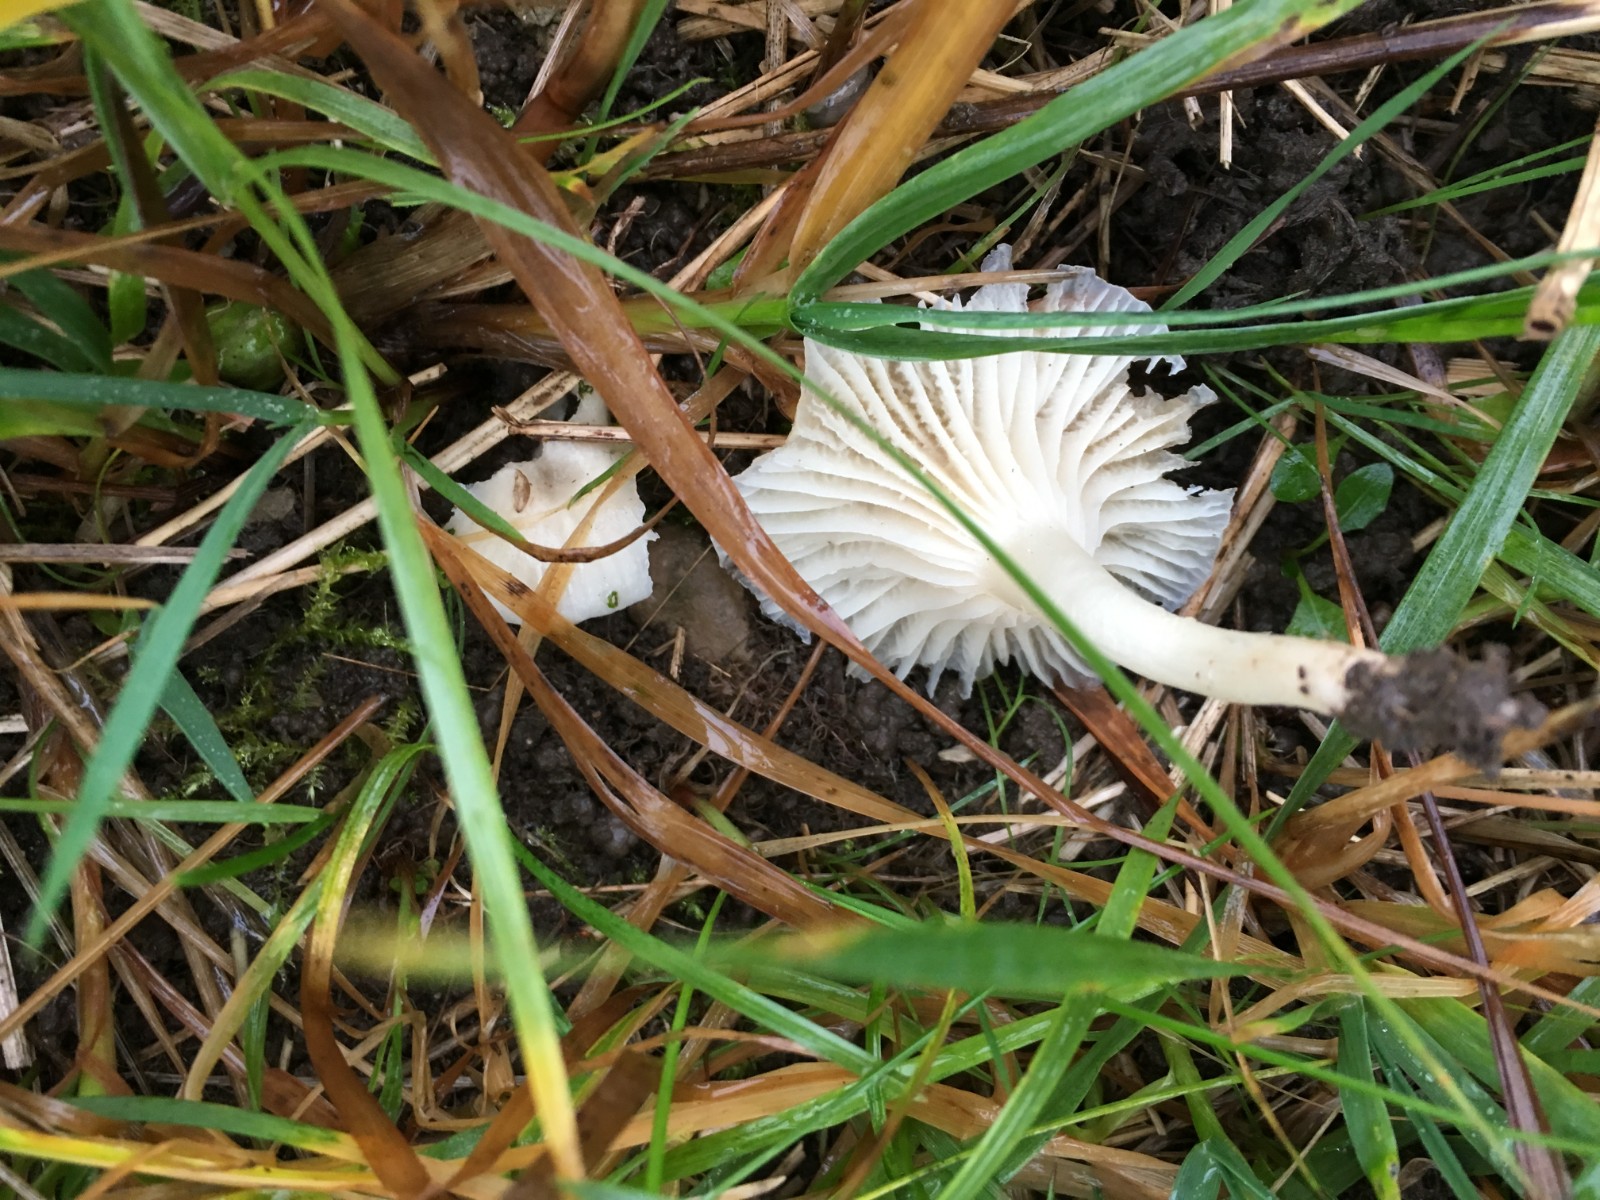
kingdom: Fungi
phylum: Basidiomycota
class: Agaricomycetes
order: Agaricales
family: Hygrophoraceae
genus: Cuphophyllus
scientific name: Cuphophyllus virgineus
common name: snehvid vokshat
